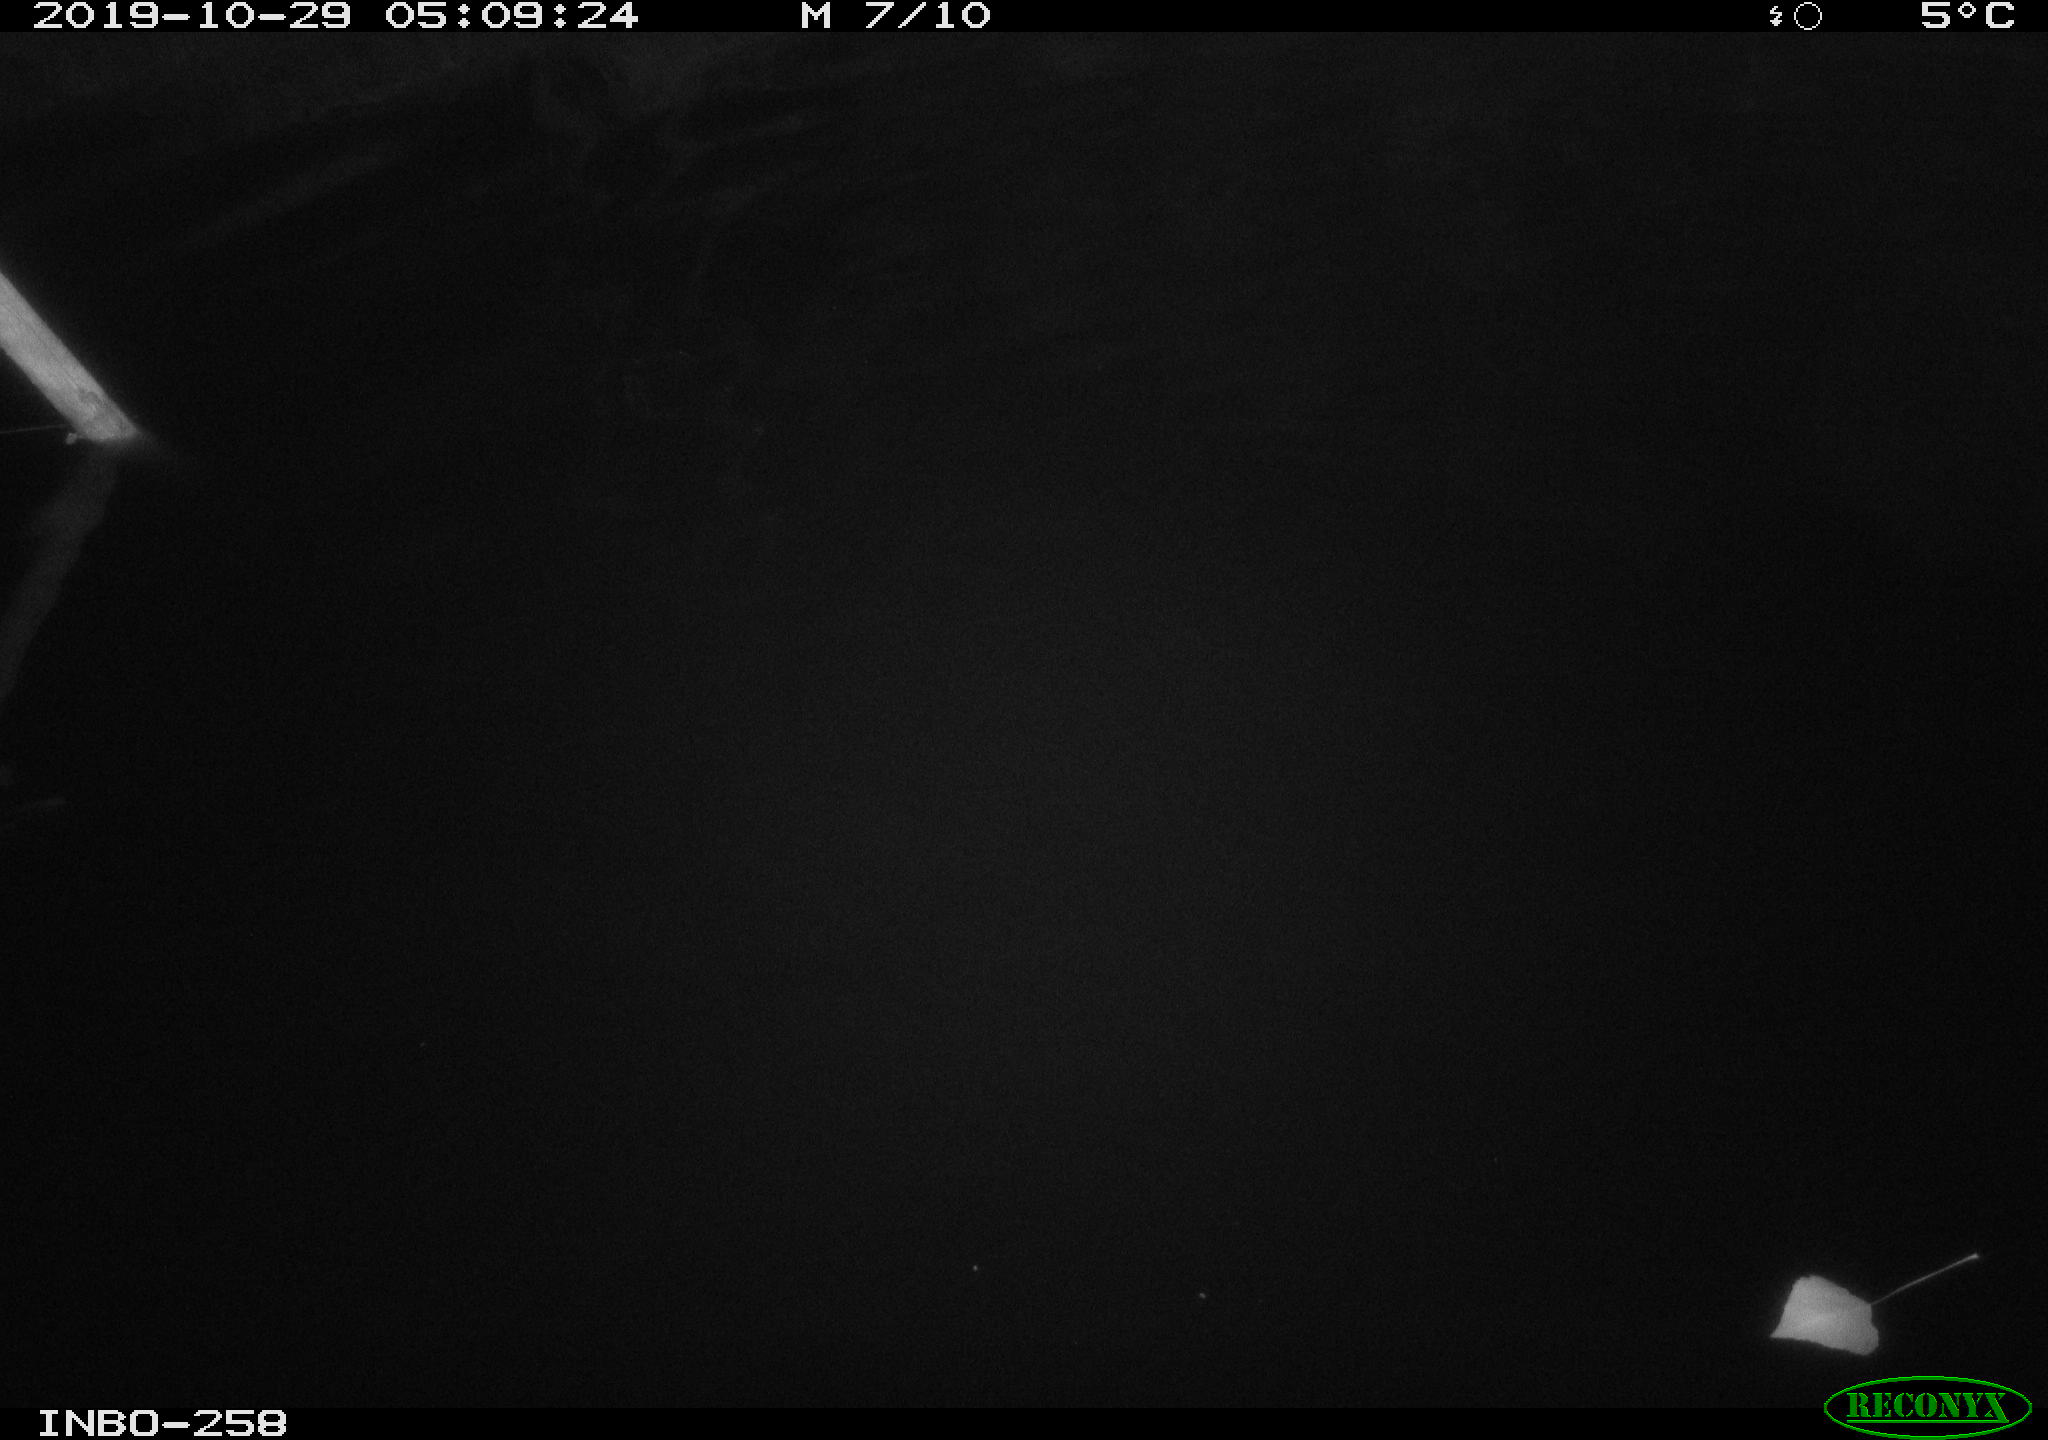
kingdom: Animalia
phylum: Chordata
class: Aves
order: Anseriformes
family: Anatidae
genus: Anas
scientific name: Anas platyrhynchos
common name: Mallard
